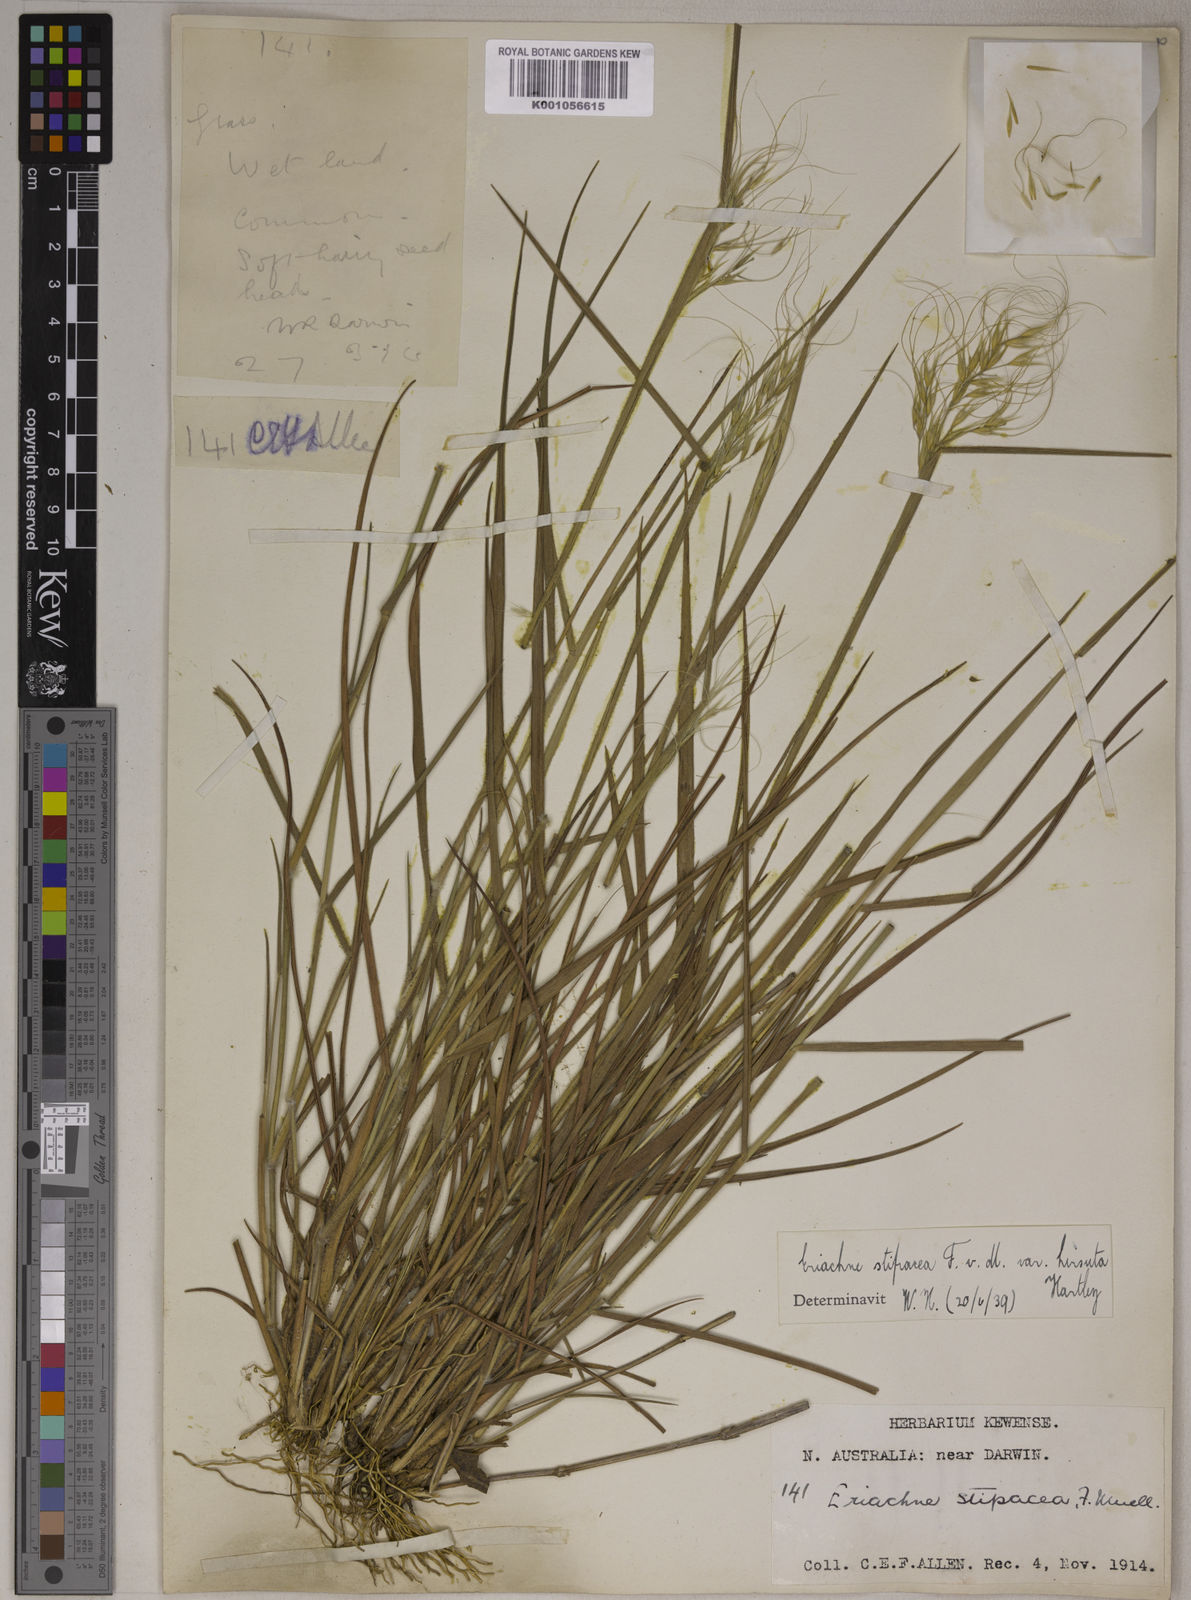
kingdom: Plantae
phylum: Tracheophyta
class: Liliopsida
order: Poales
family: Poaceae
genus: Eriachne
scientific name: Eriachne stipacea
